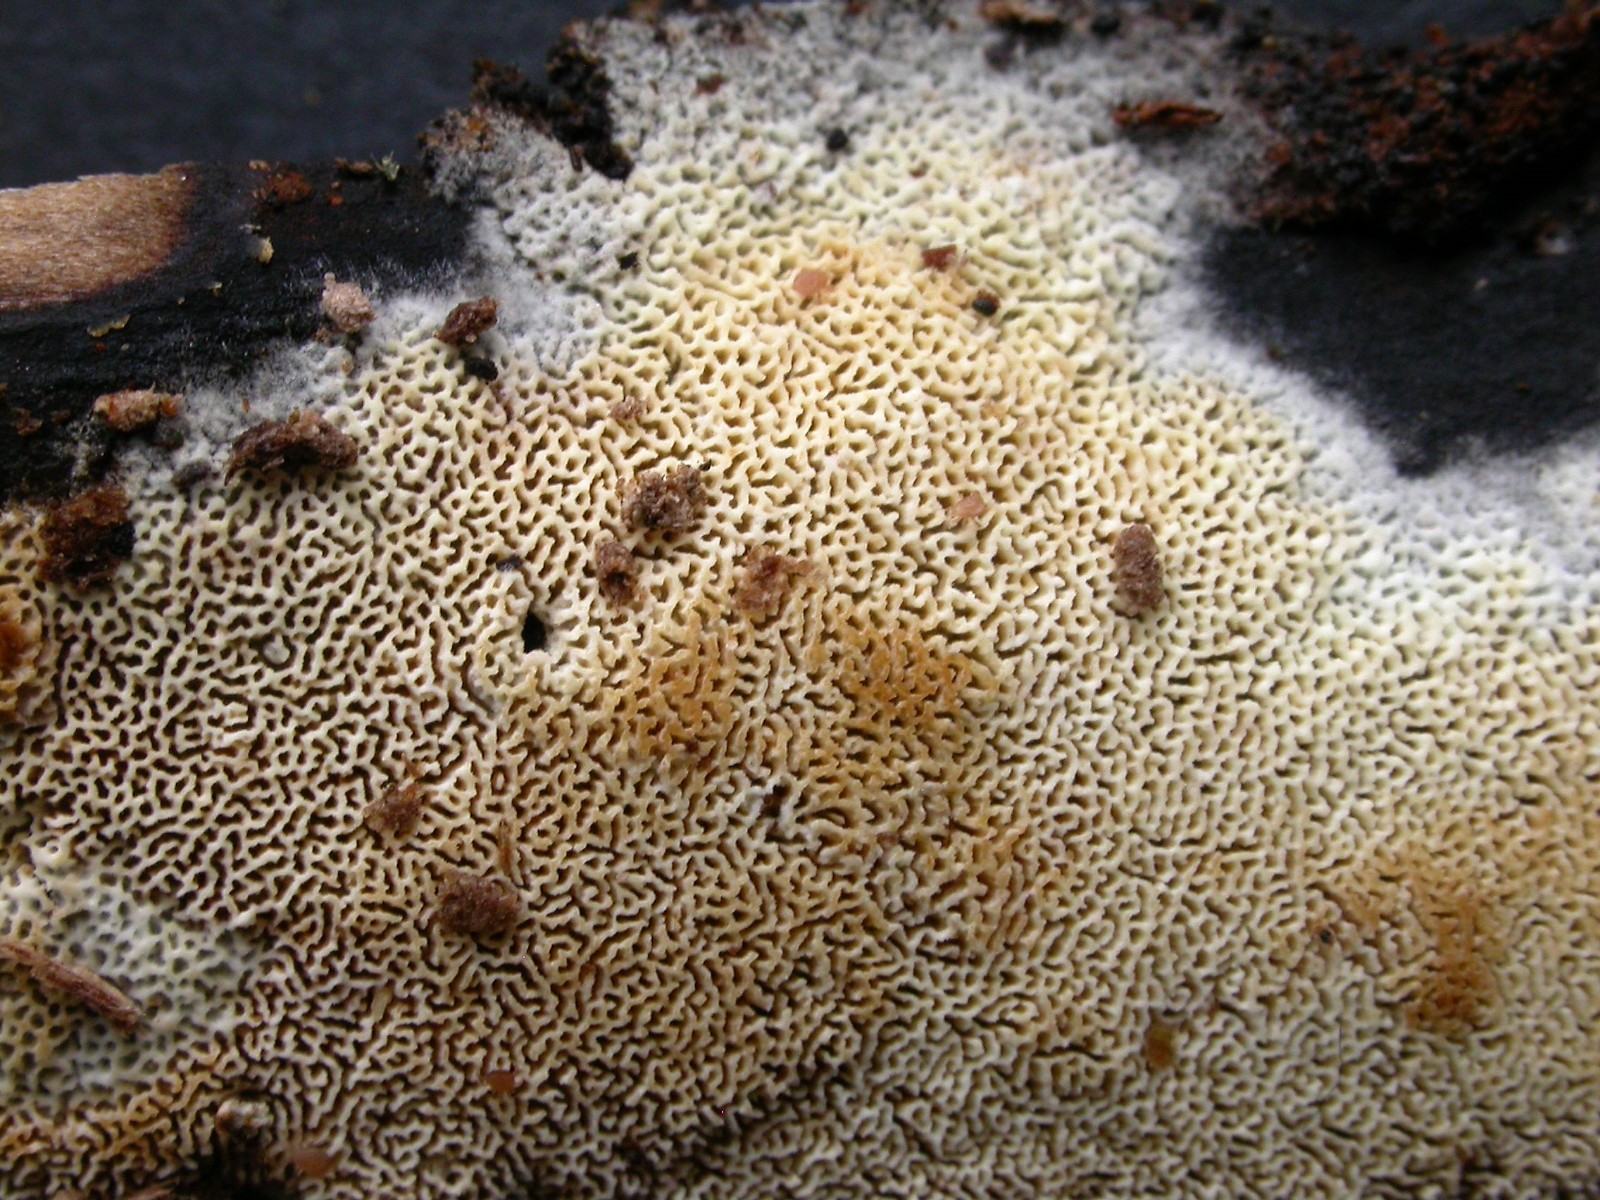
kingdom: Fungi
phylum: Basidiomycota
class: Agaricomycetes
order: Hymenochaetales
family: Schizoporaceae
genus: Xylodon
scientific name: Xylodon subtropicus
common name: labyrint-tandsvamp
